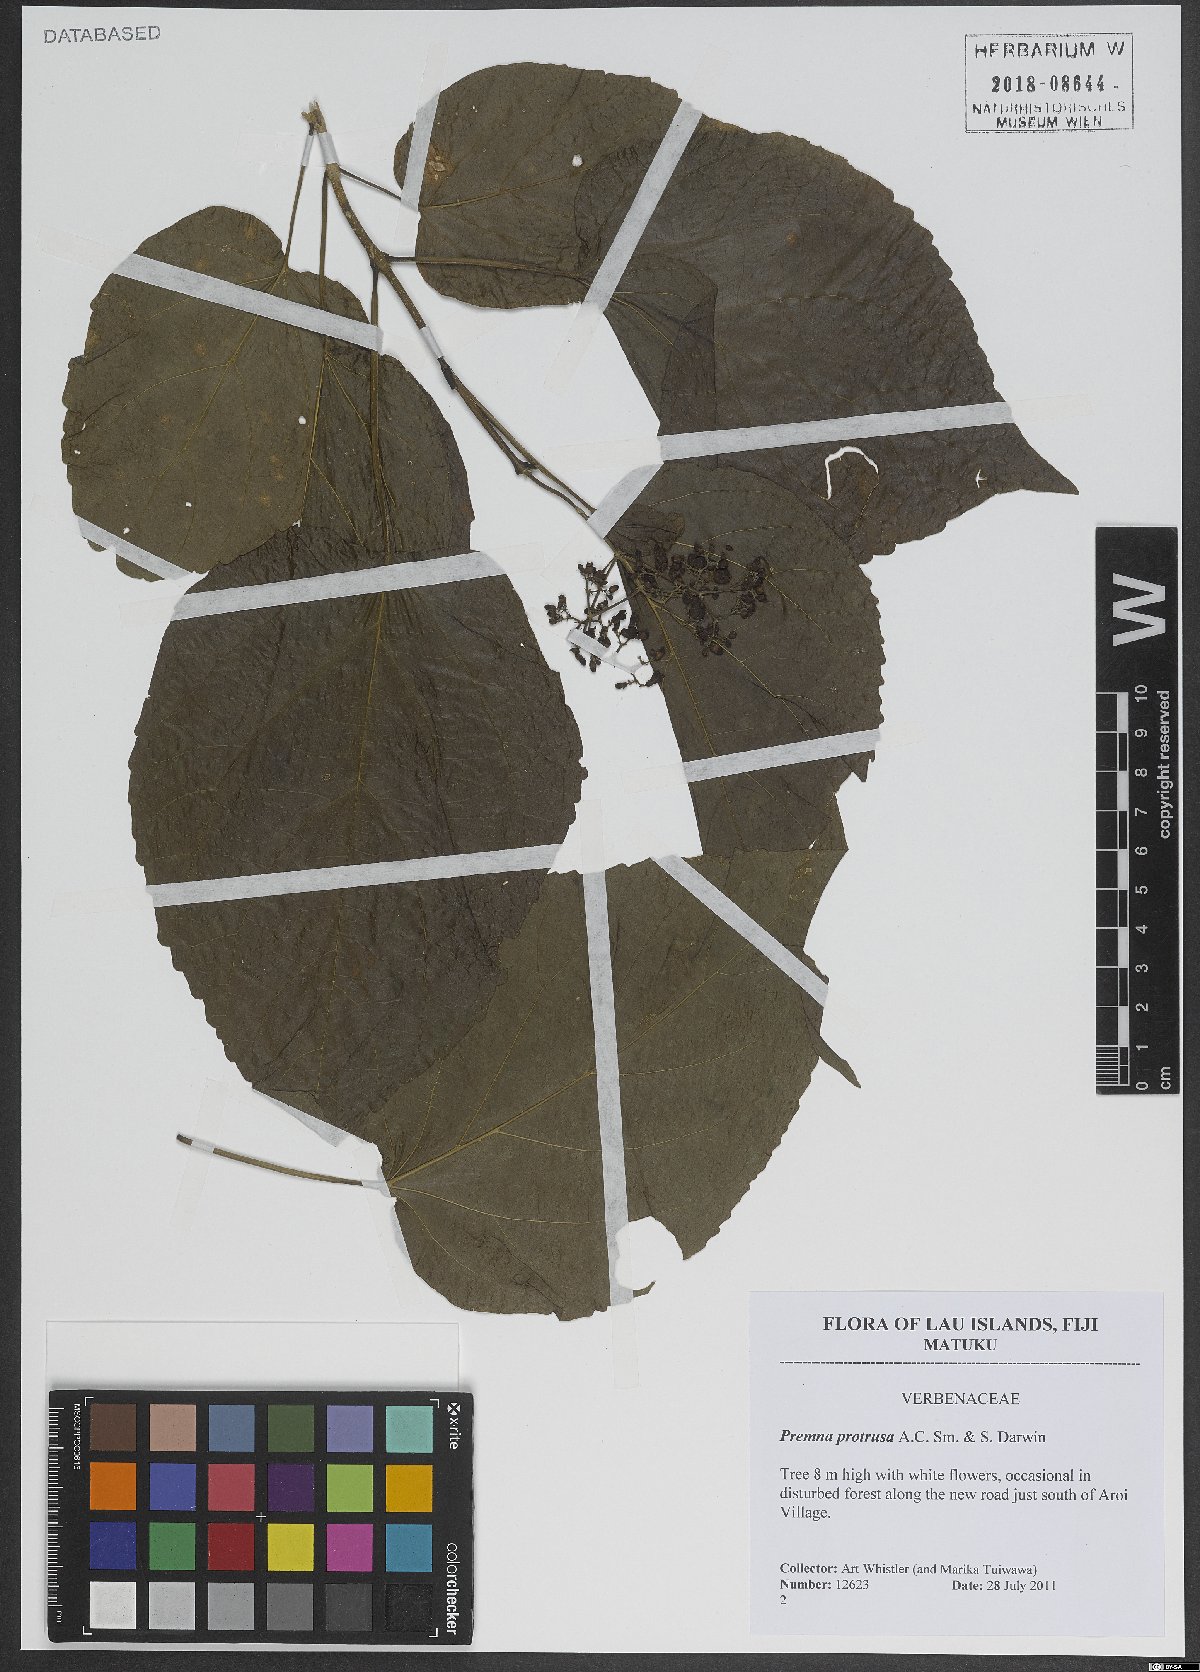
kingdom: Plantae
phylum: Tracheophyta
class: Magnoliopsida
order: Lamiales
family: Lamiaceae
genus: Premna
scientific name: Premna protrusa
